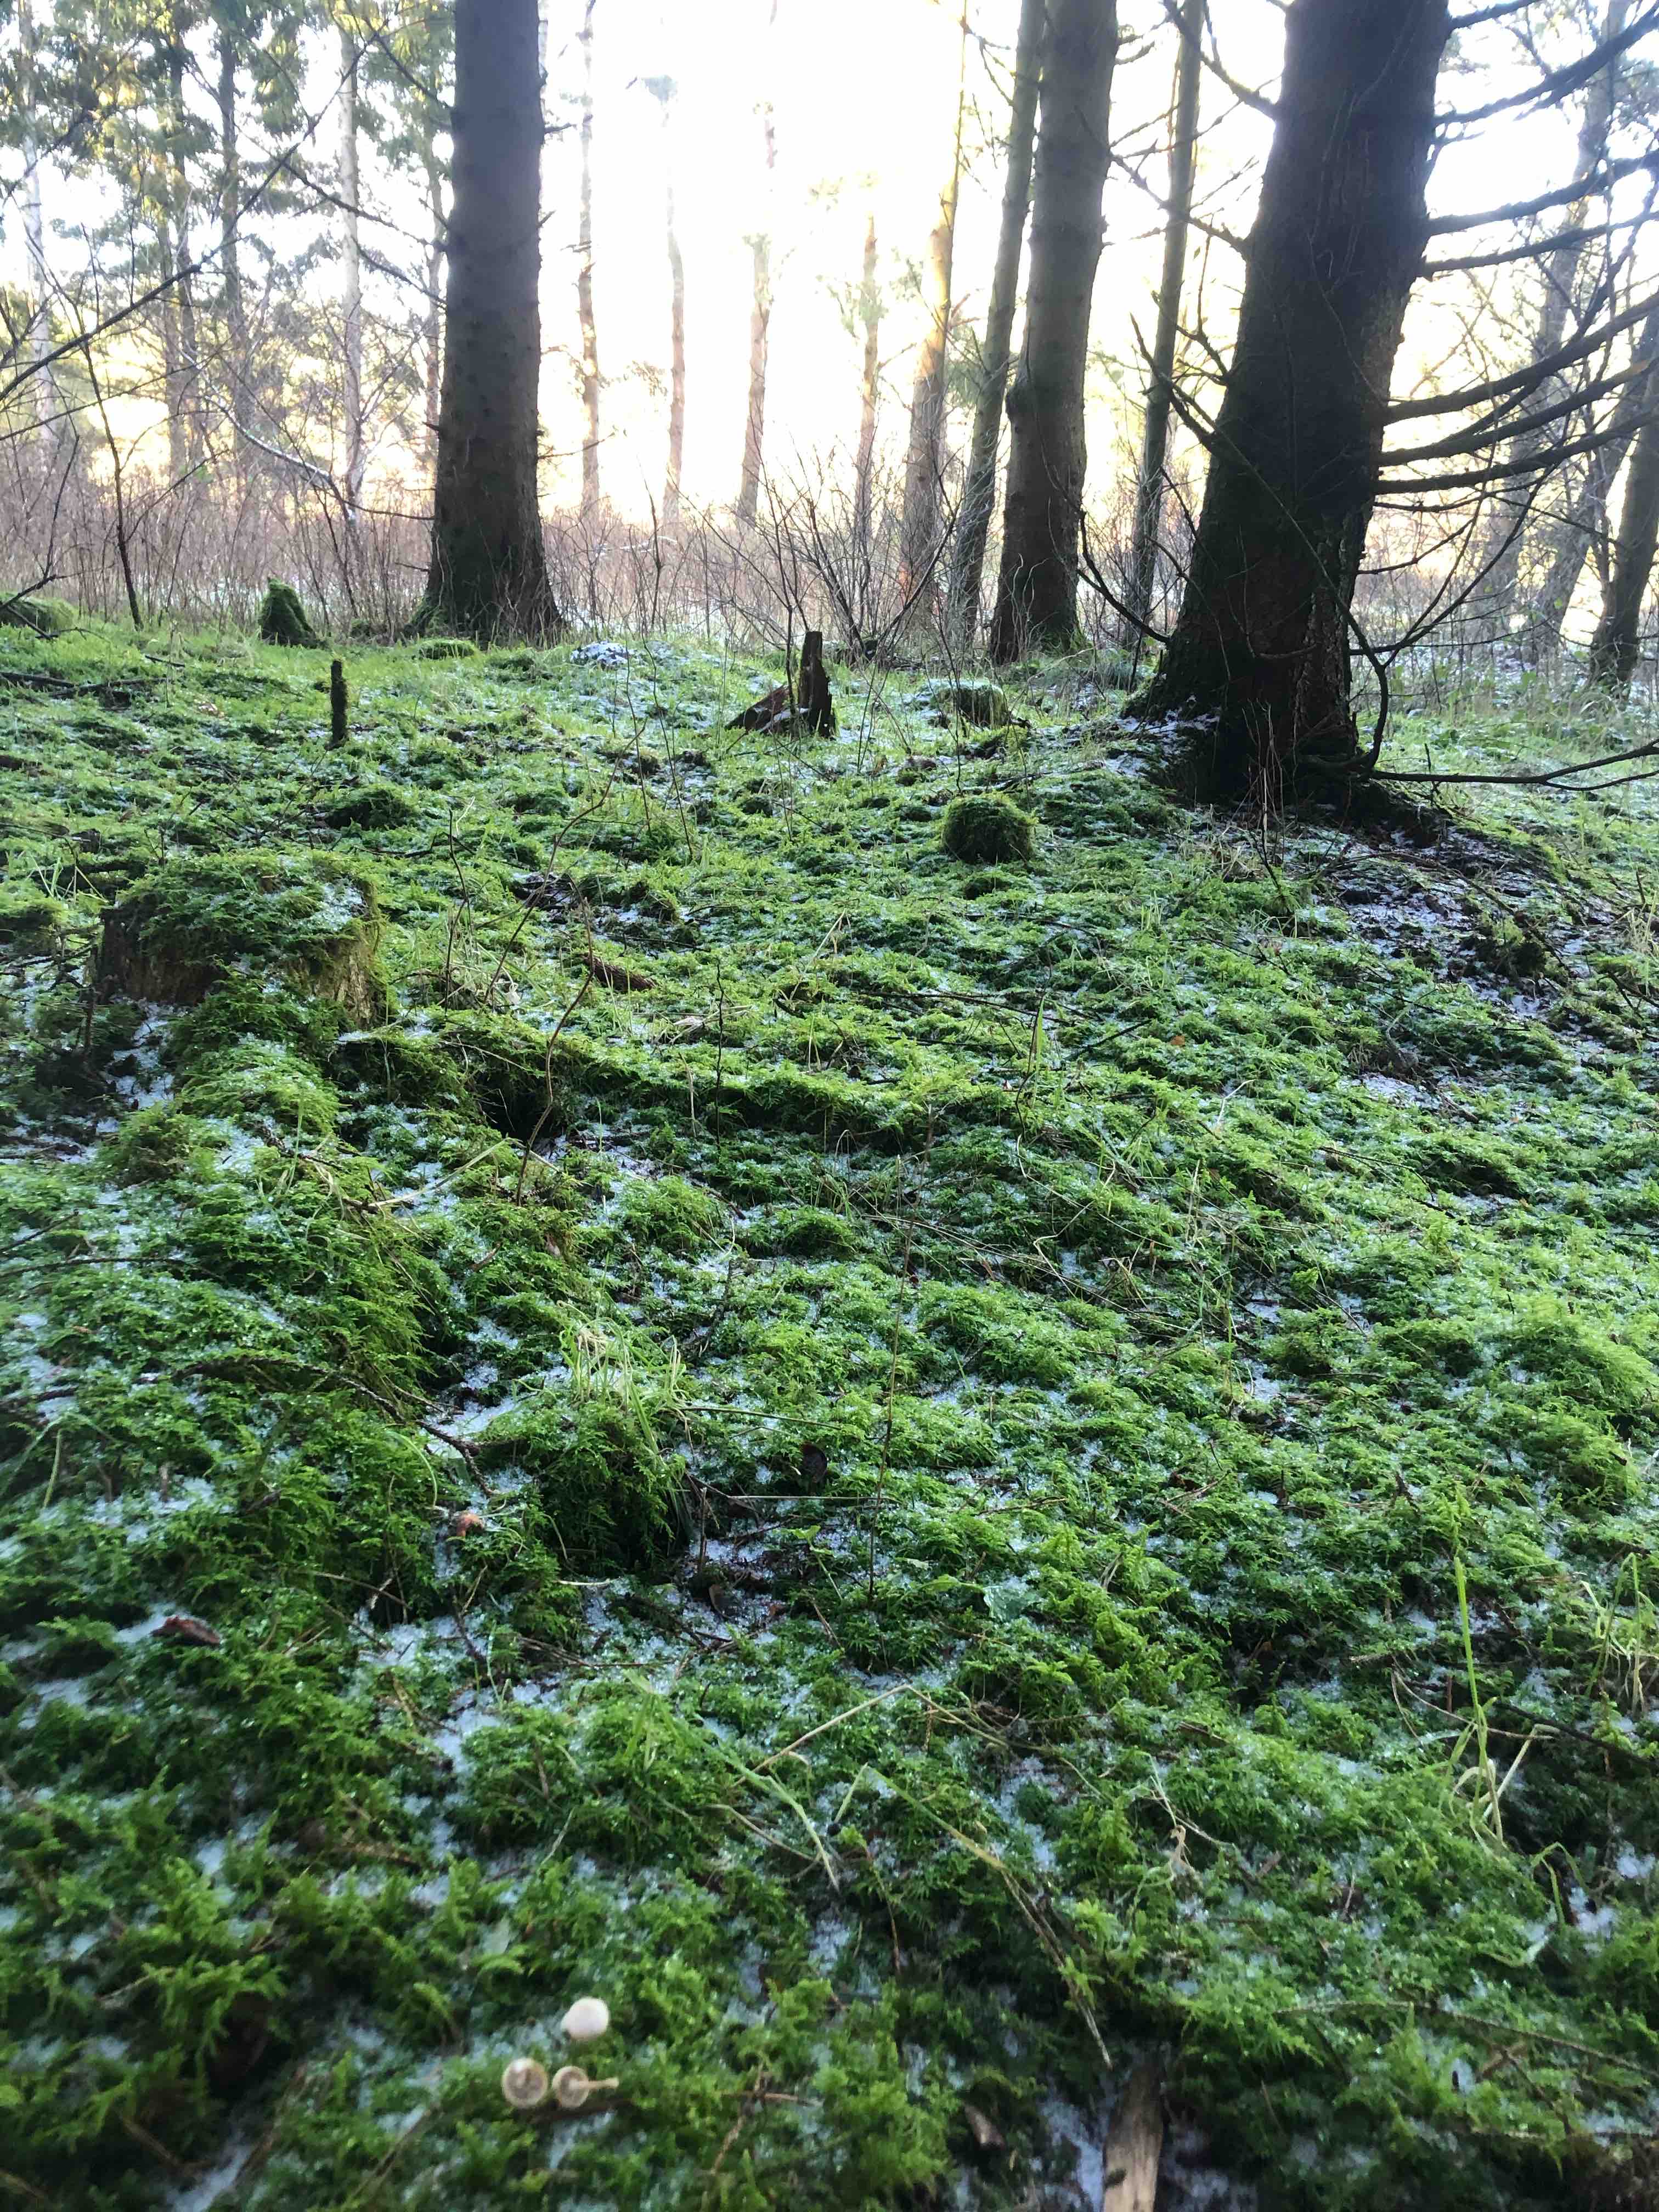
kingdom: Fungi
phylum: Basidiomycota
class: Agaricomycetes
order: Agaricales
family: Tricholomataceae
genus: Clitocybe
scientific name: Clitocybe fragrans
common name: vellugtende tragthat
